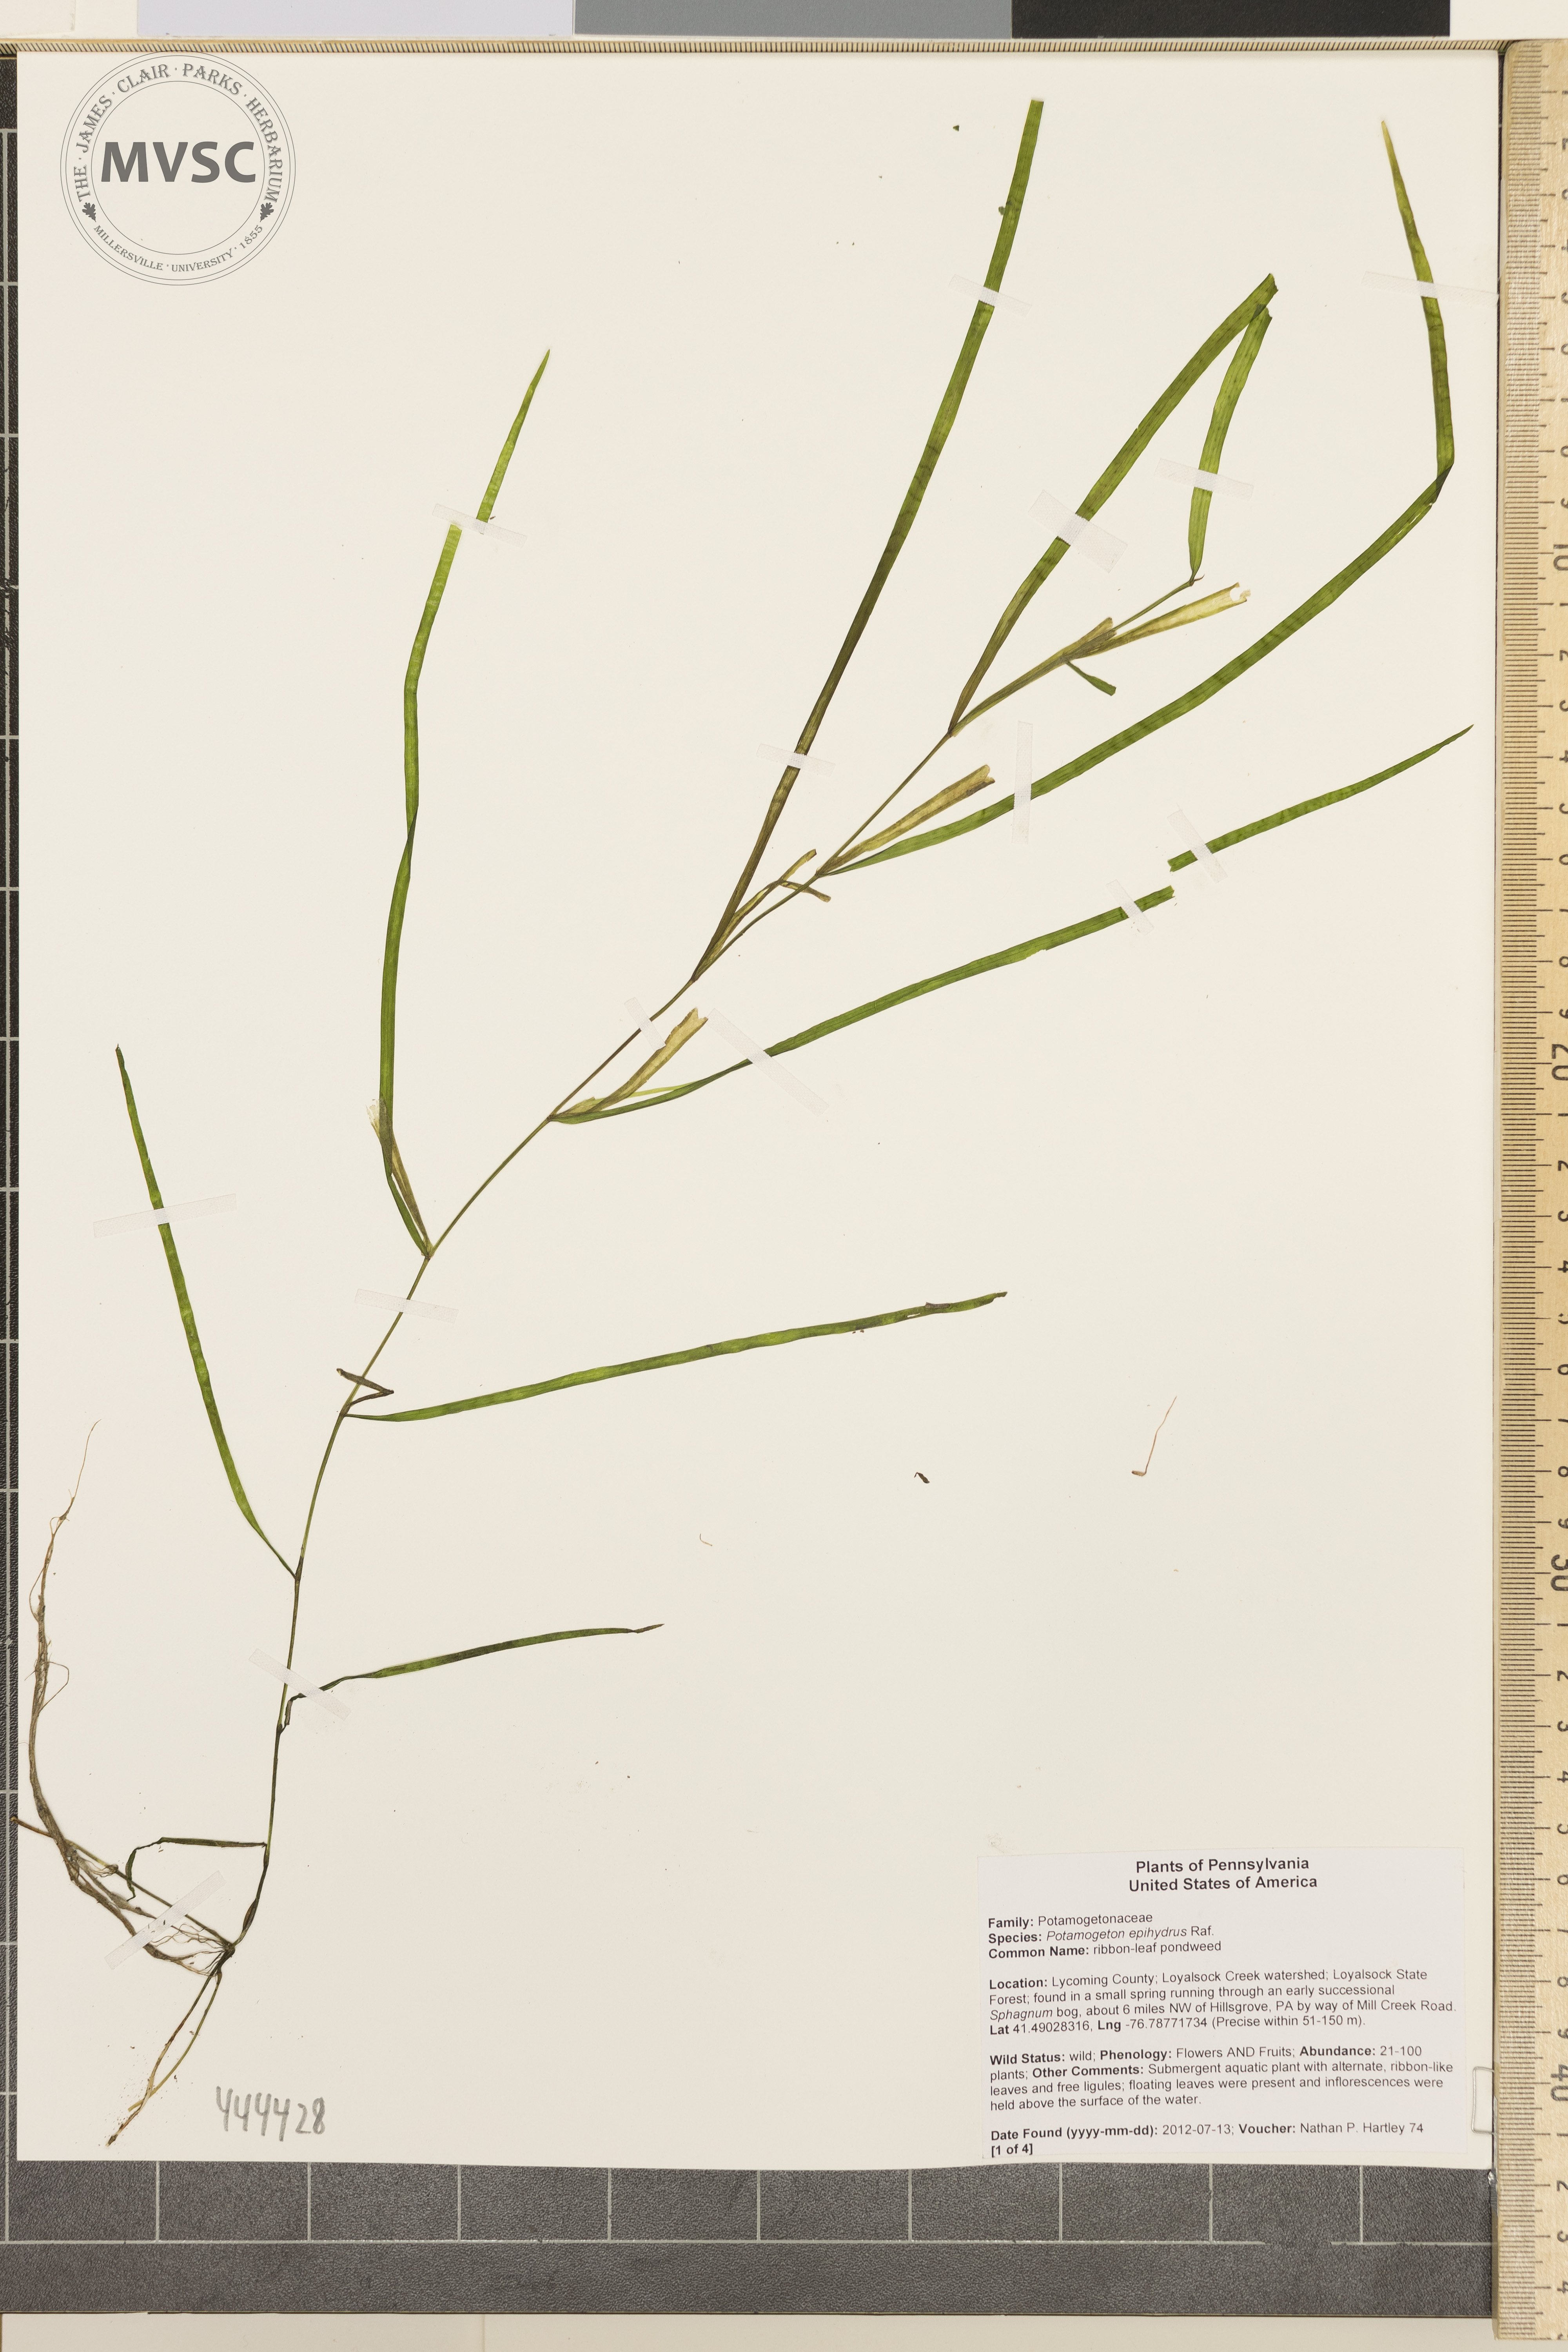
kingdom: Plantae
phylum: Tracheophyta
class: Liliopsida
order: Alismatales
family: Potamogetonaceae
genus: Potamogeton
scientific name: Potamogeton epihydrus
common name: Ribbonleaf pondweed
